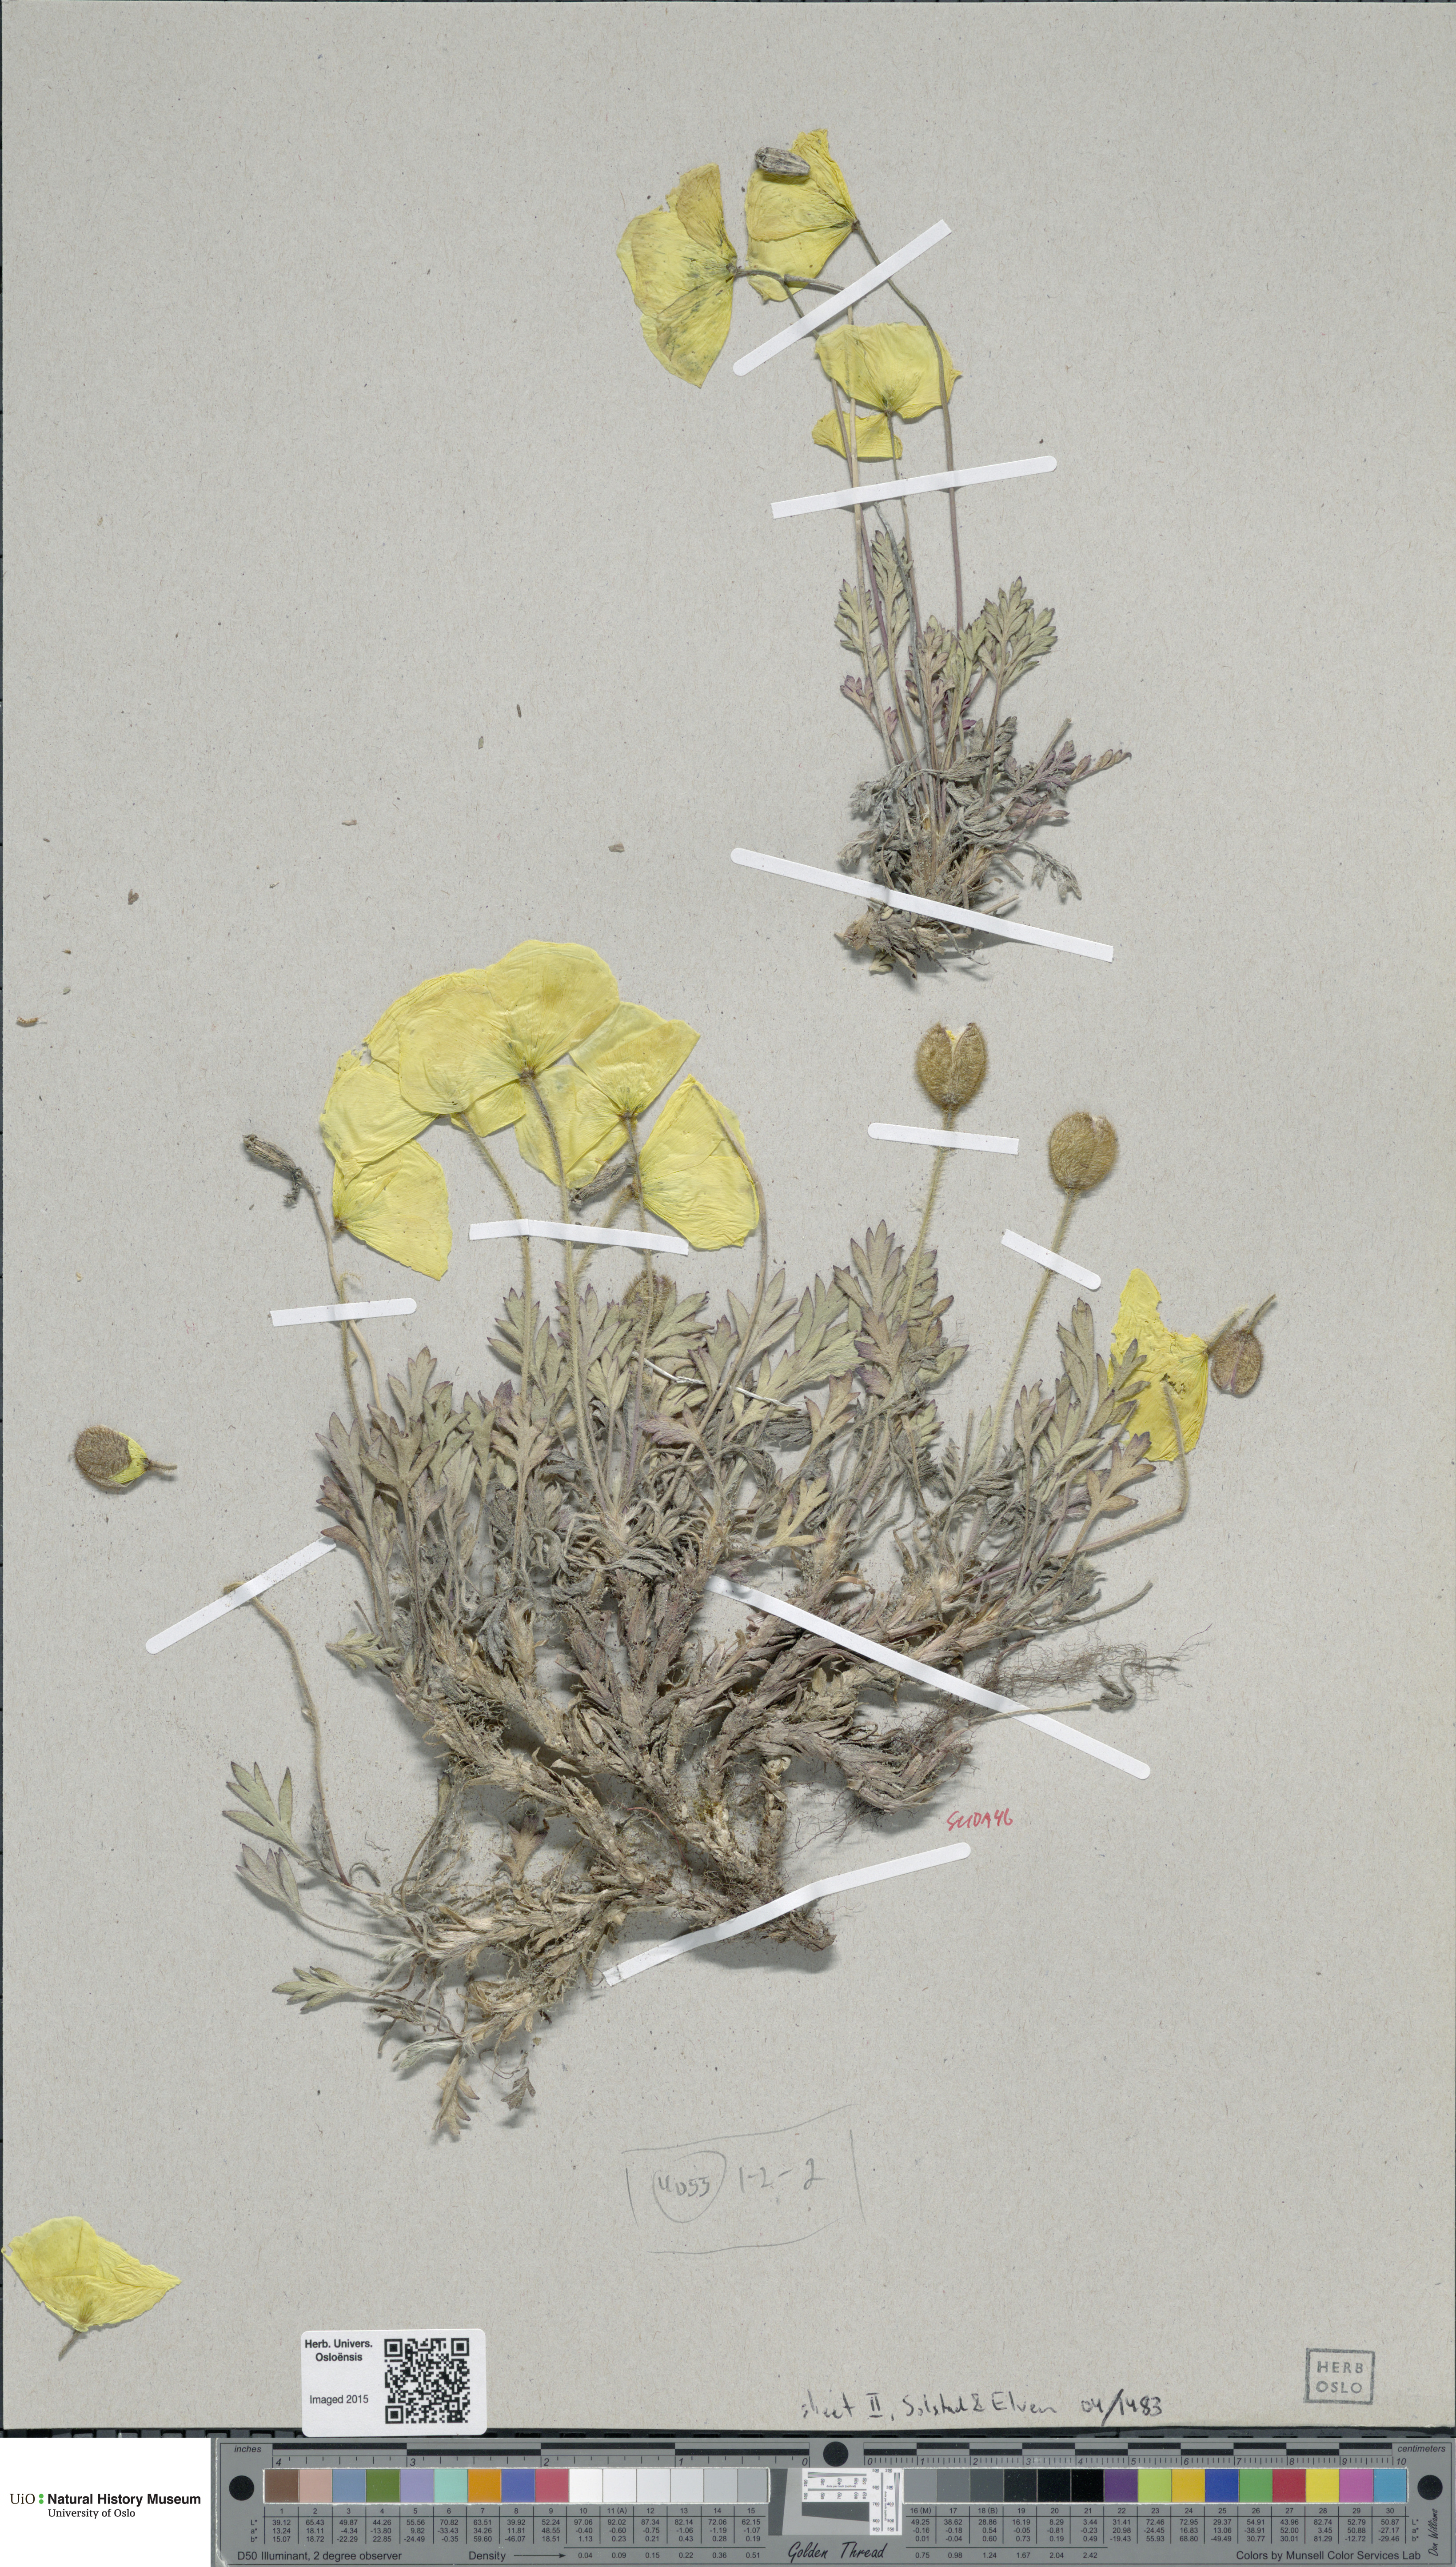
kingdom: Plantae
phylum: Tracheophyta
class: Magnoliopsida
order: Ranunculales
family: Papaveraceae
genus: Papaver
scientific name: Papaver lenaense
